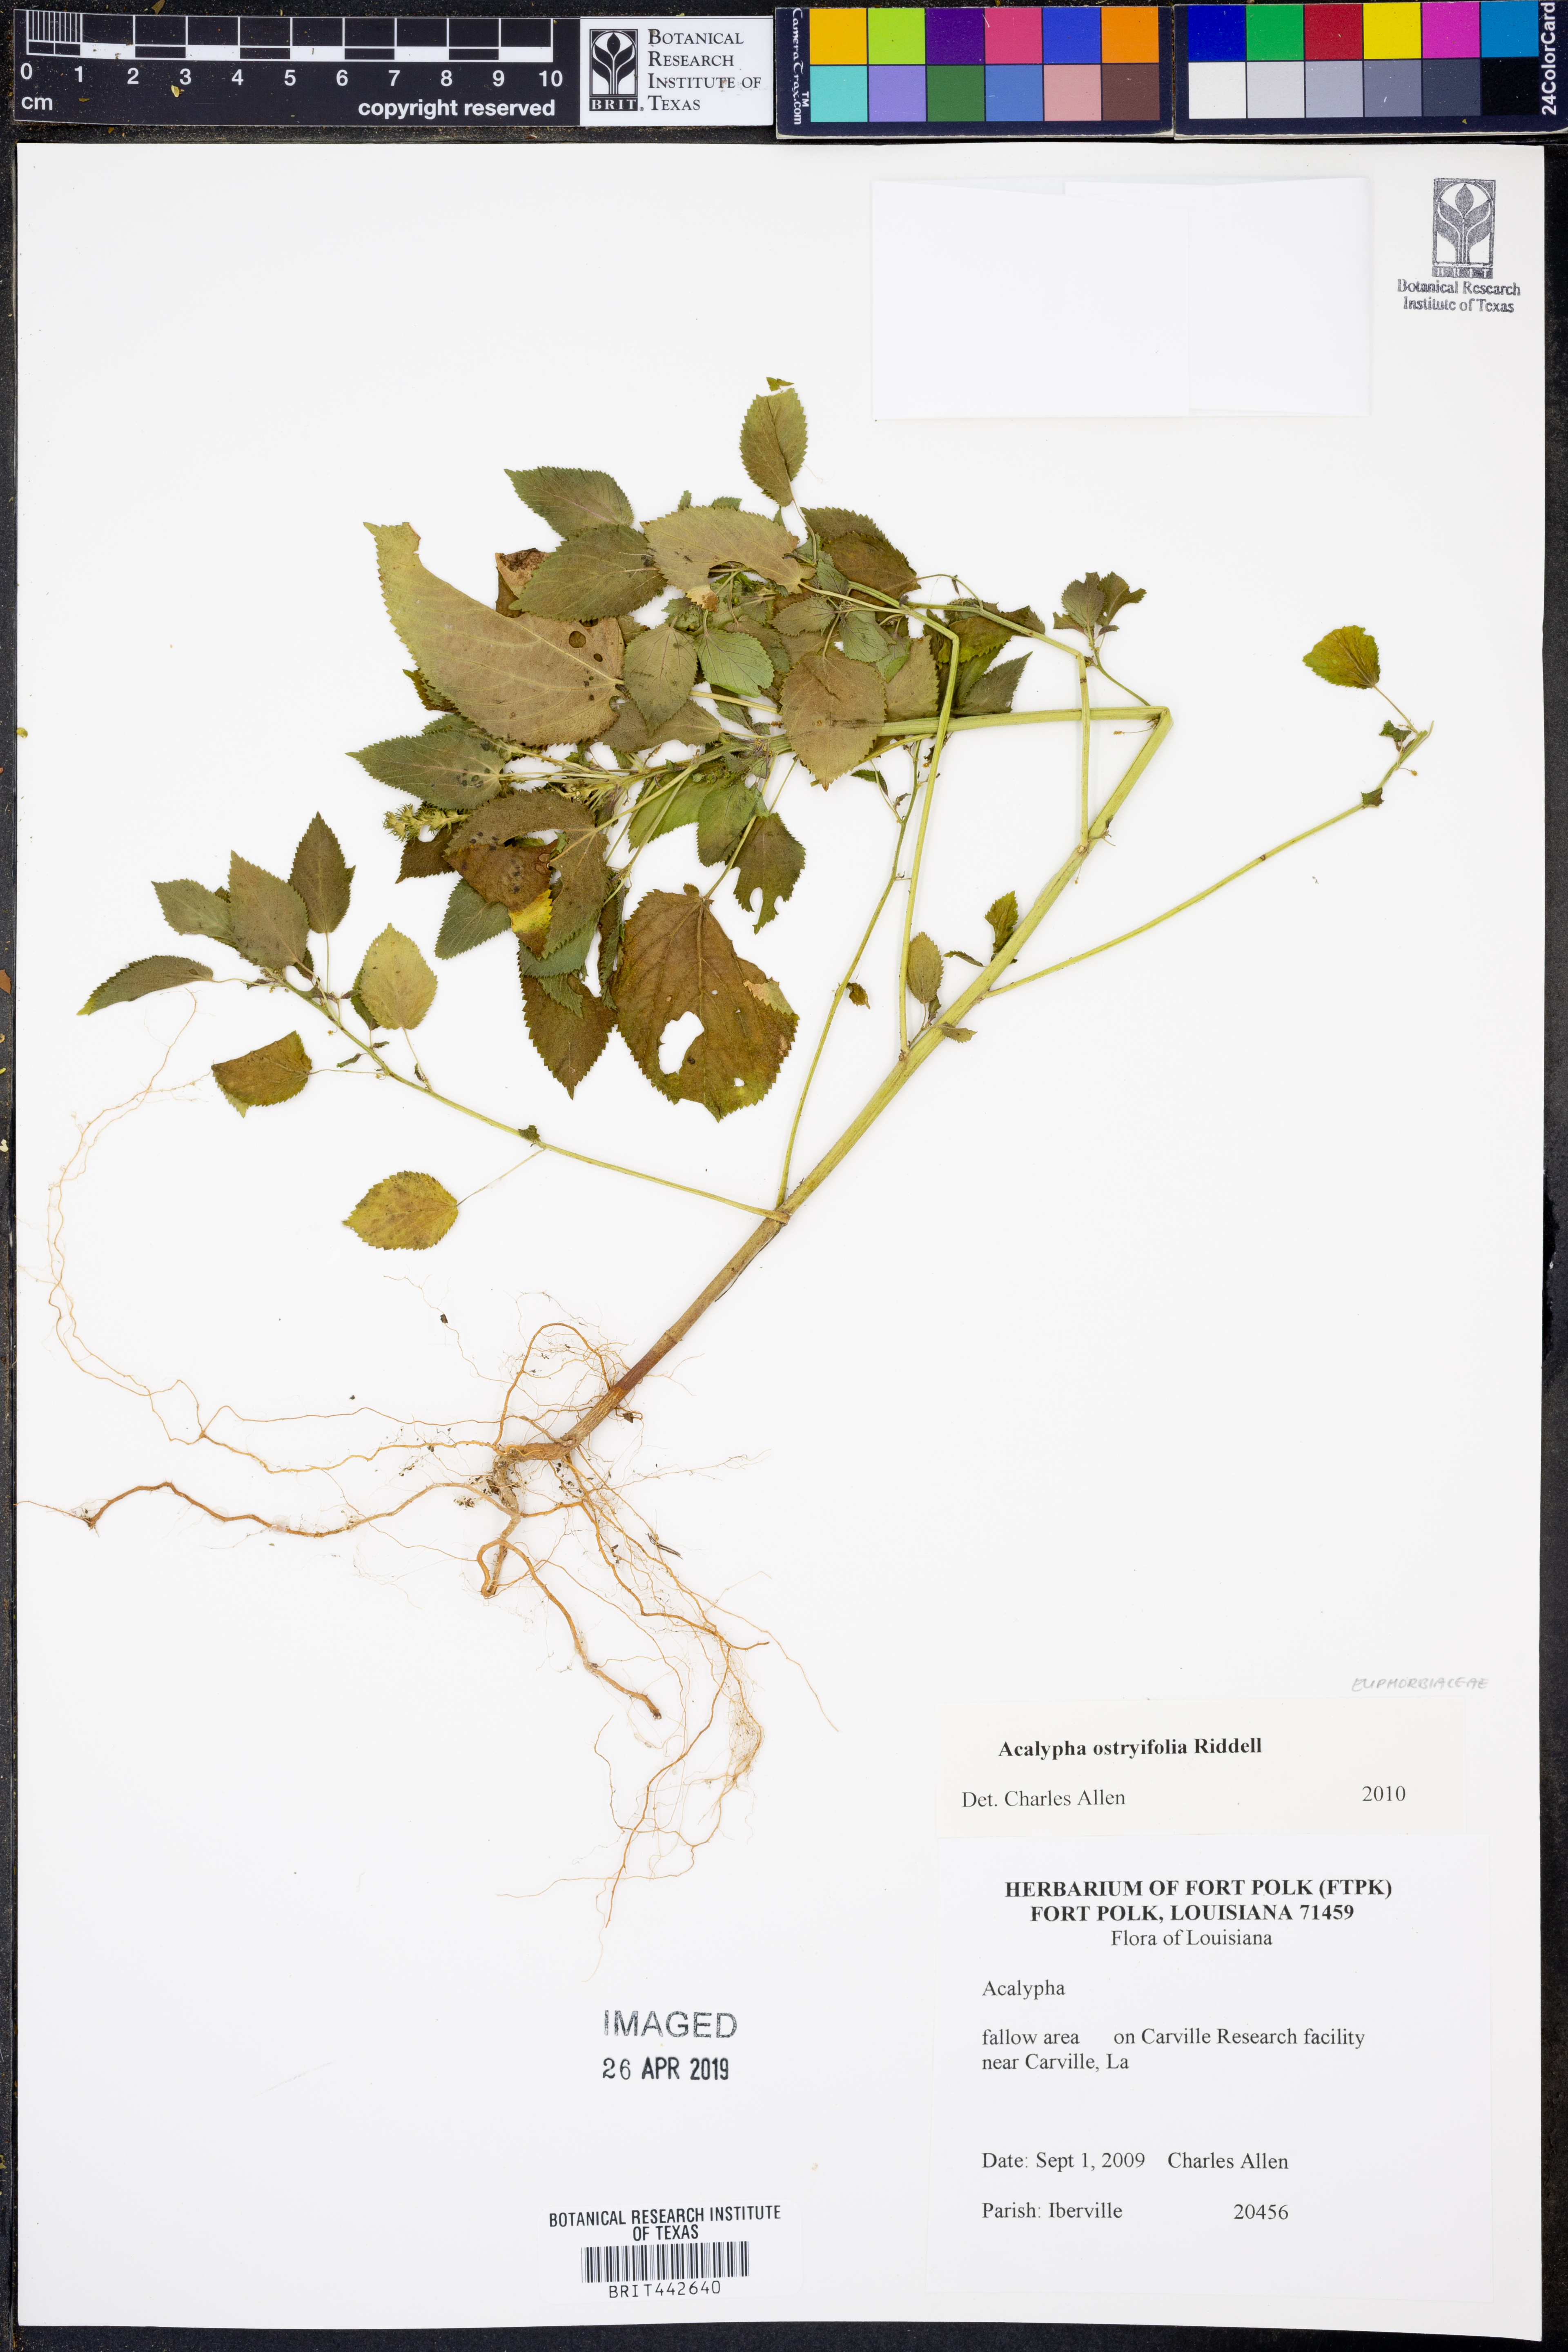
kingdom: Plantae
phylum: Tracheophyta
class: Magnoliopsida
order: Malpighiales
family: Euphorbiaceae
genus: Acalypha
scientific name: Acalypha persimilis
